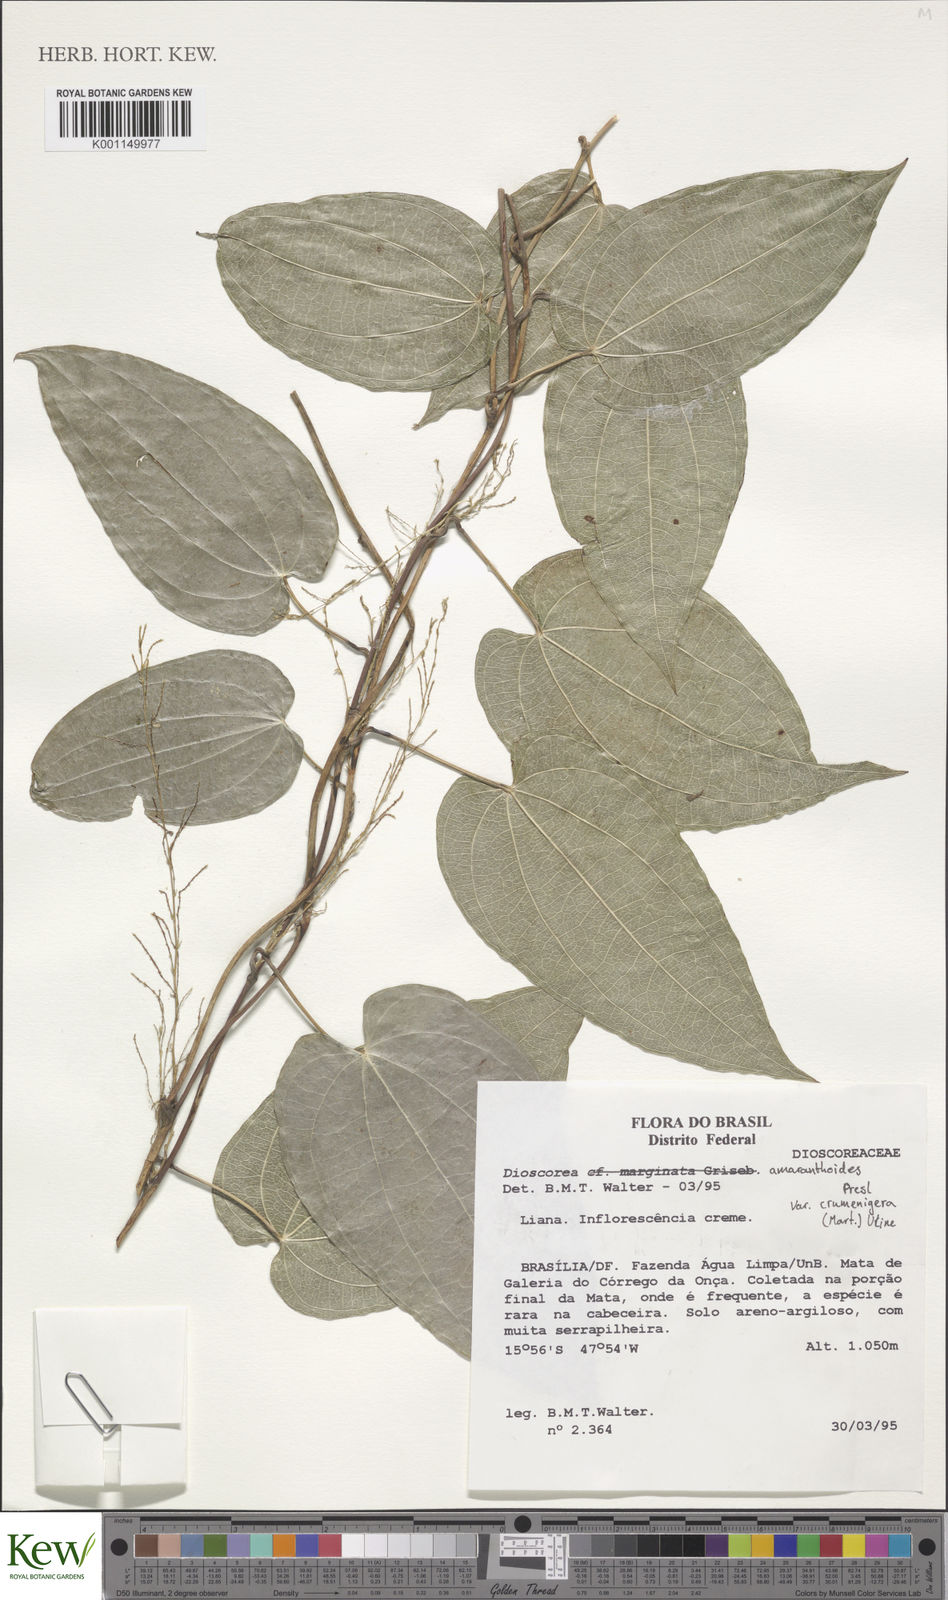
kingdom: Plantae
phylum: Tracheophyta
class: Liliopsida
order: Dioscoreales
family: Dioscoreaceae
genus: Dioscorea
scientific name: Dioscorea
